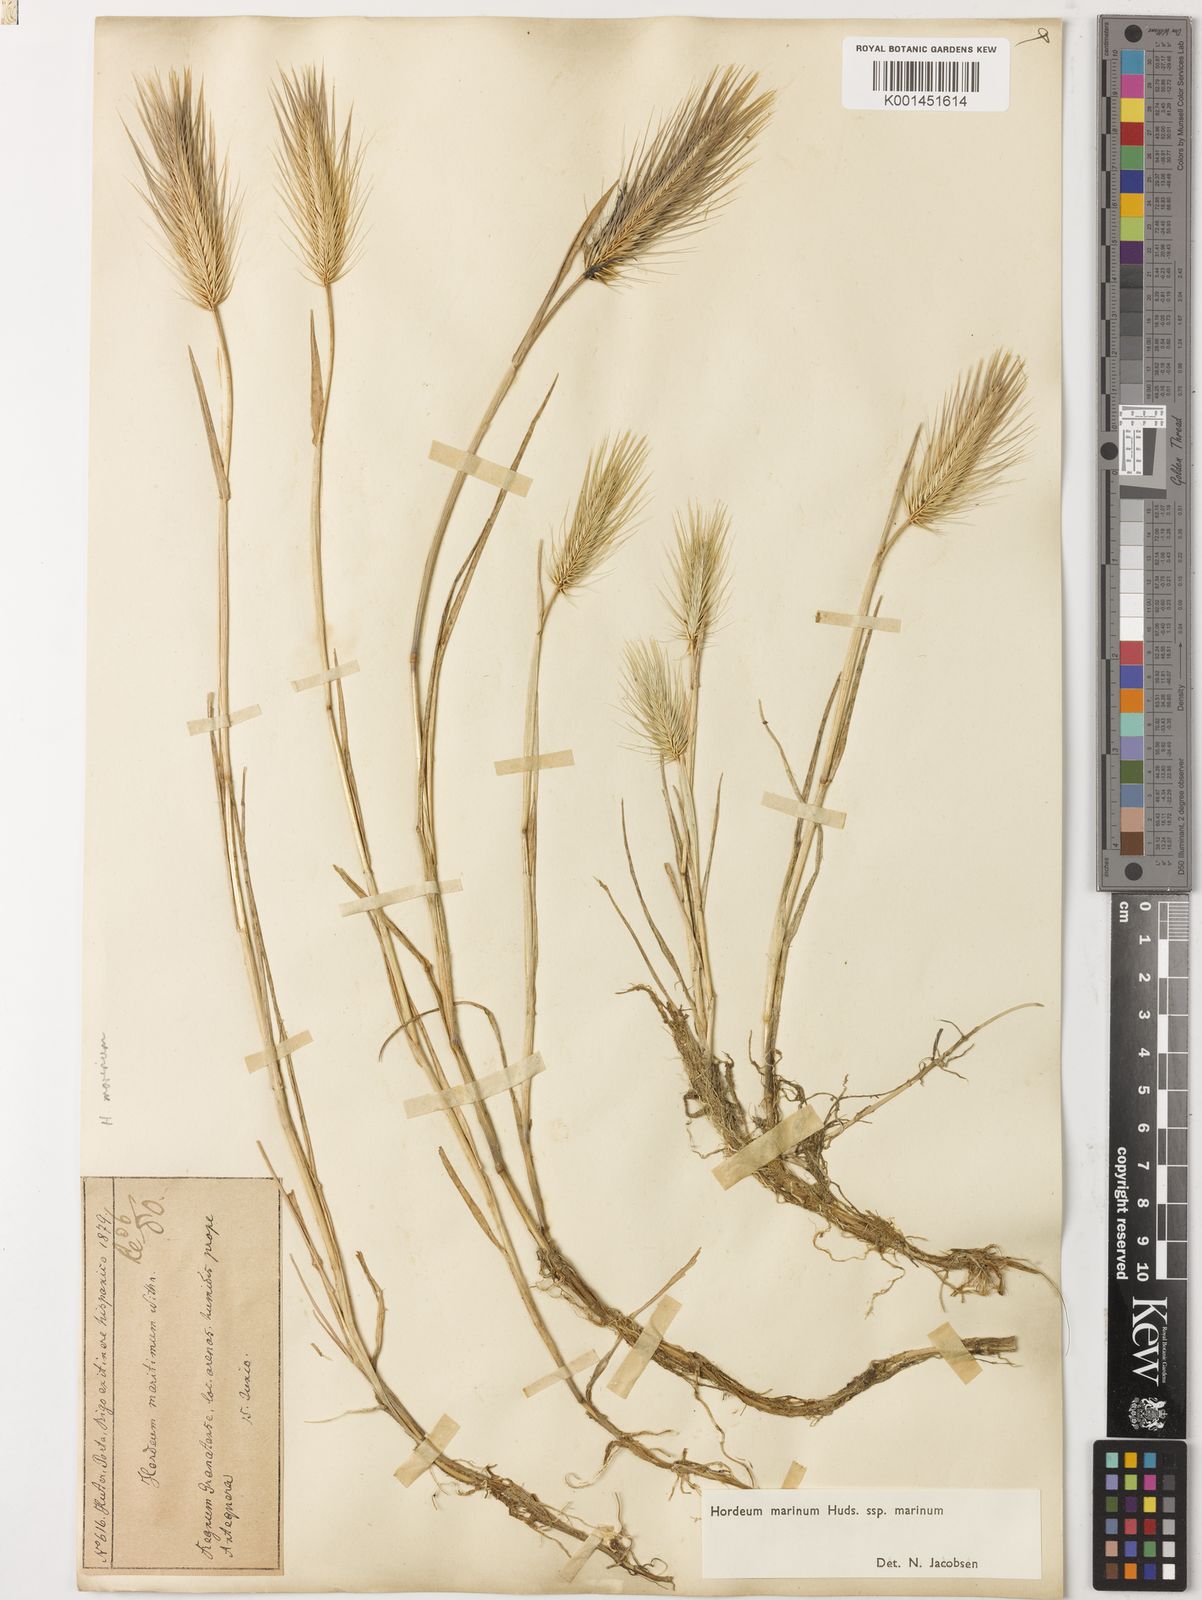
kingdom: Plantae
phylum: Tracheophyta
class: Liliopsida
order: Poales
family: Poaceae
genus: Hordeum
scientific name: Hordeum marinum
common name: Sea barley
